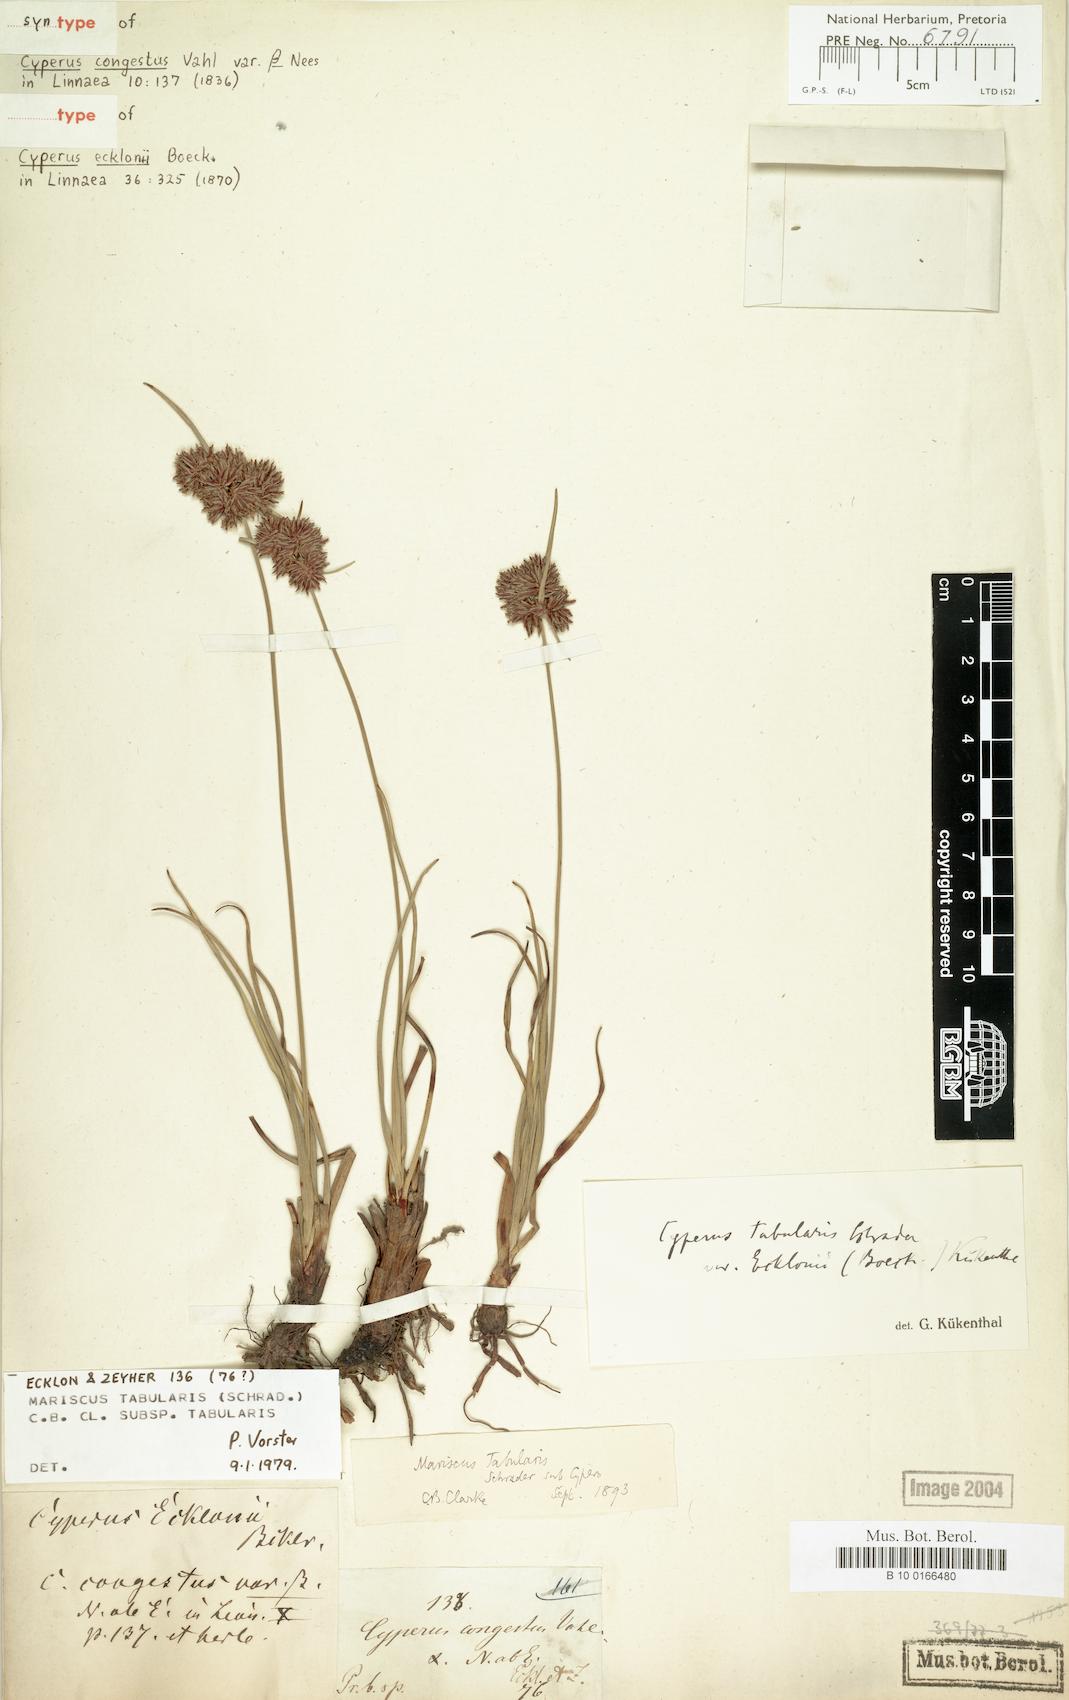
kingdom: Plantae
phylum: Tracheophyta
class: Liliopsida
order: Poales
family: Cyperaceae
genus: Cyperus
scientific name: Cyperus tabularis
